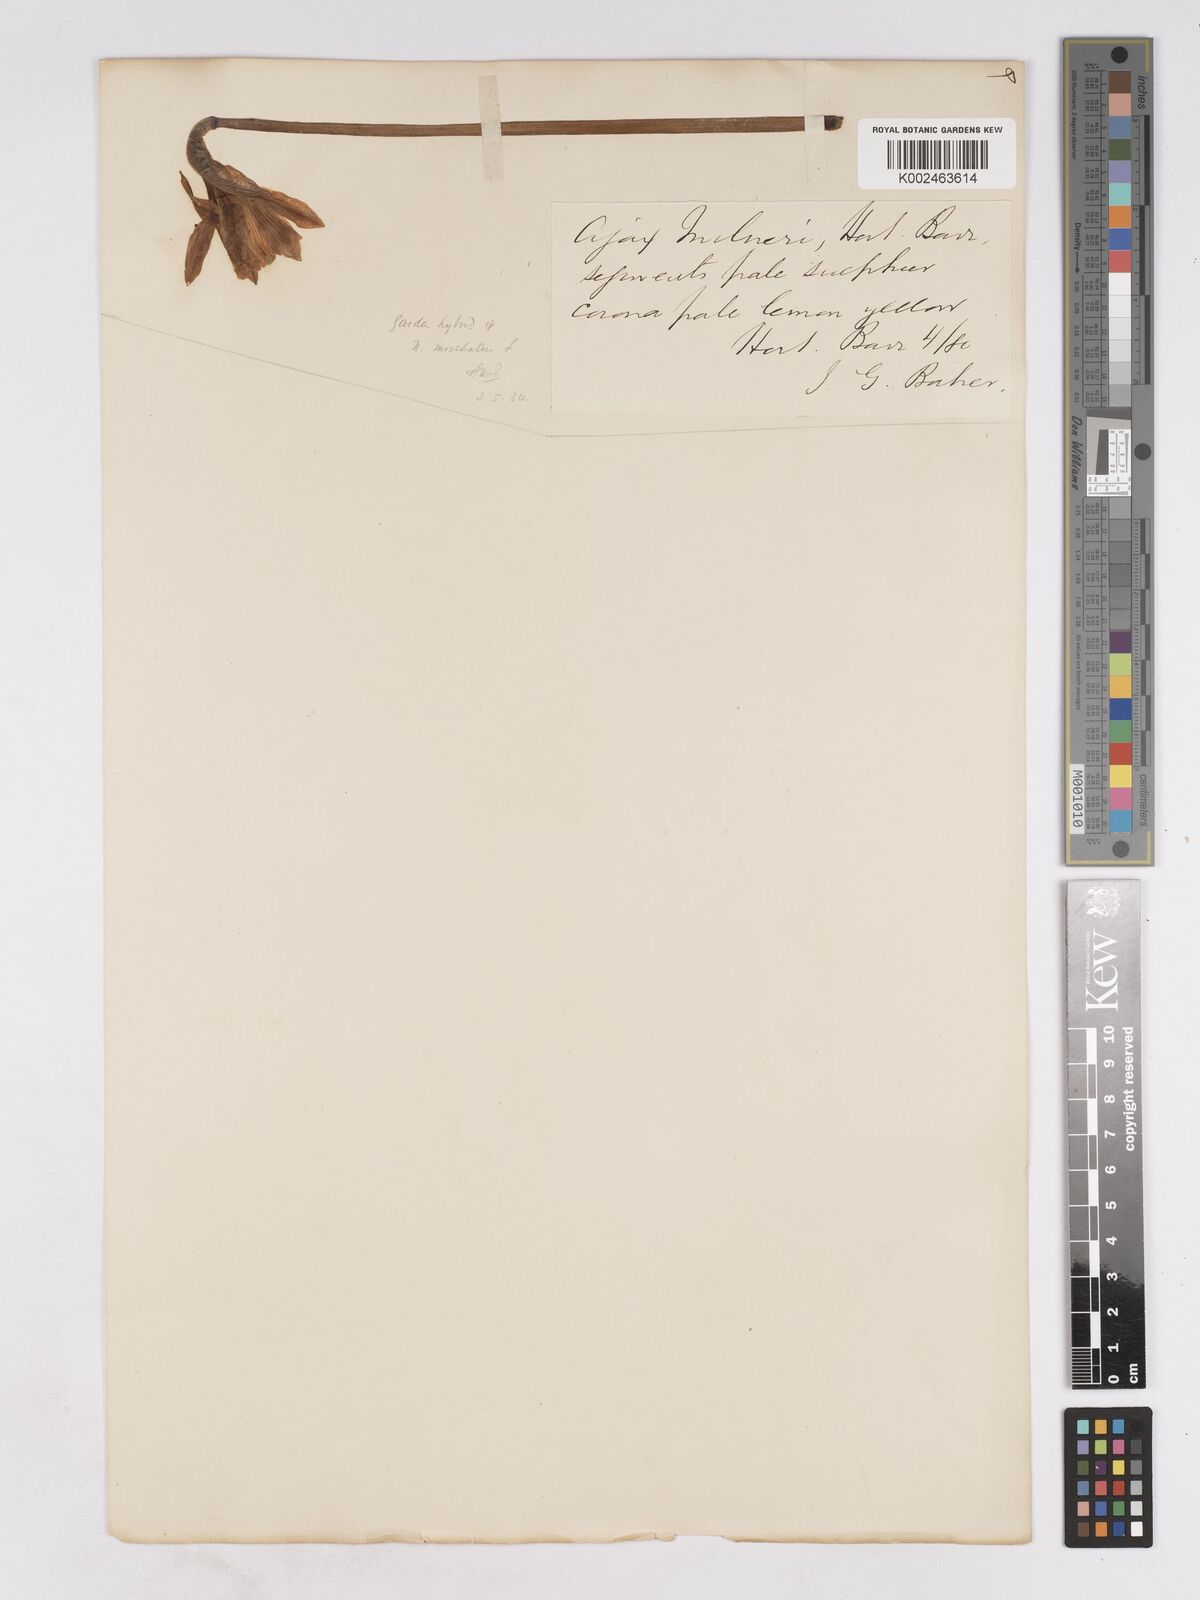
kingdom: Plantae
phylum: Tracheophyta
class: Liliopsida
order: Asparagales
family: Amaryllidaceae
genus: Narcissus
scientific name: Narcissus moschatus
